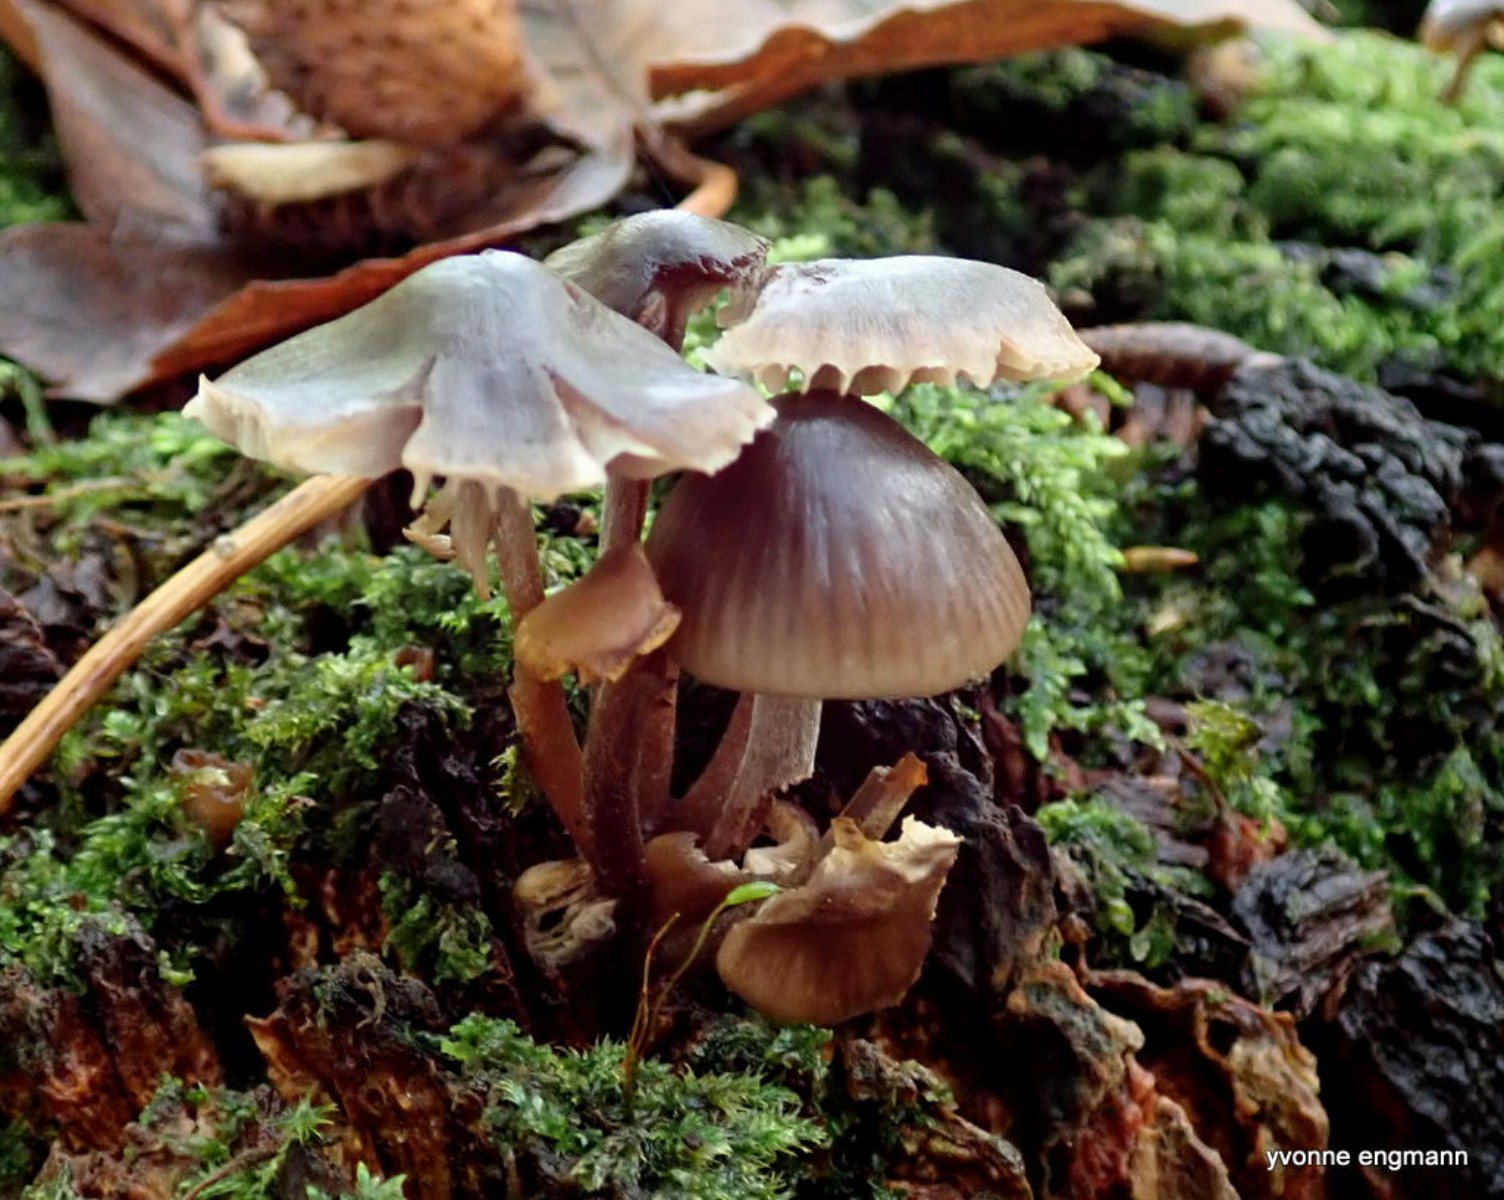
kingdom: Fungi
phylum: Basidiomycota
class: Agaricomycetes
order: Agaricales
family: Mycenaceae
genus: Mycena
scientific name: Mycena inclinata
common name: nikkende huesvamp
